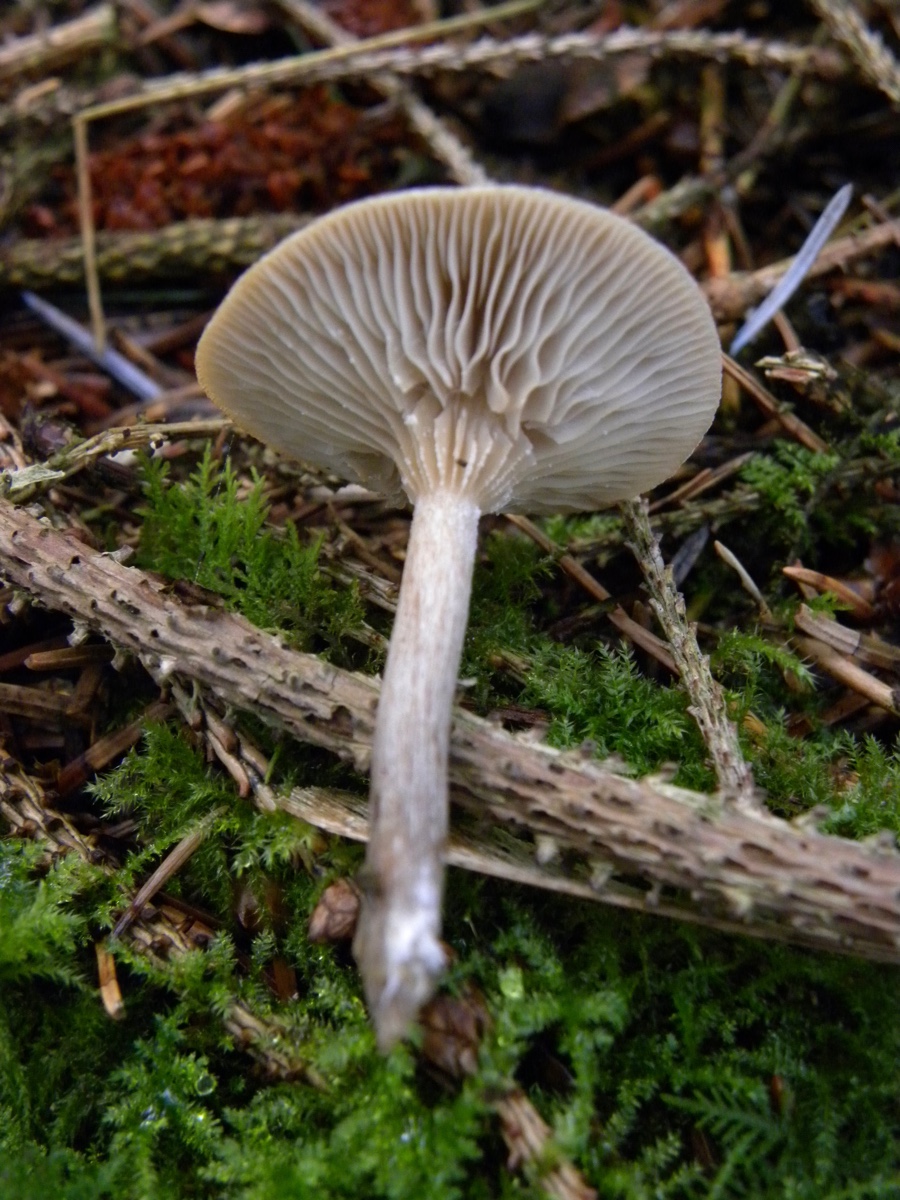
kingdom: Fungi
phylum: Basidiomycota
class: Agaricomycetes
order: Agaricales
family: Tricholomataceae
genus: Clitocybe
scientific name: Clitocybe metachroa
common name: grå tragthat
